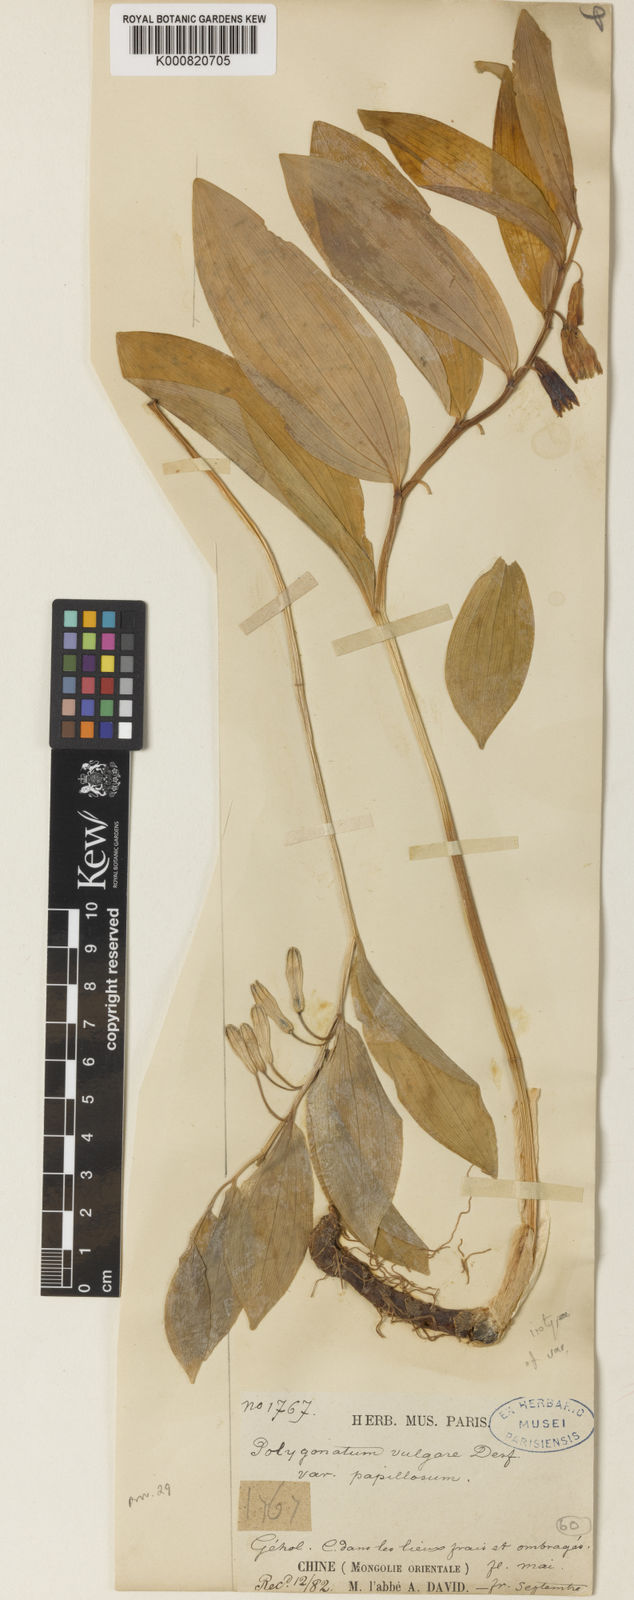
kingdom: Plantae
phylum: Tracheophyta
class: Liliopsida
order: Asparagales
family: Asparagaceae
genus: Polygonatum
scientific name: Polygonatum odoratum
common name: Angular solomon's-seal
